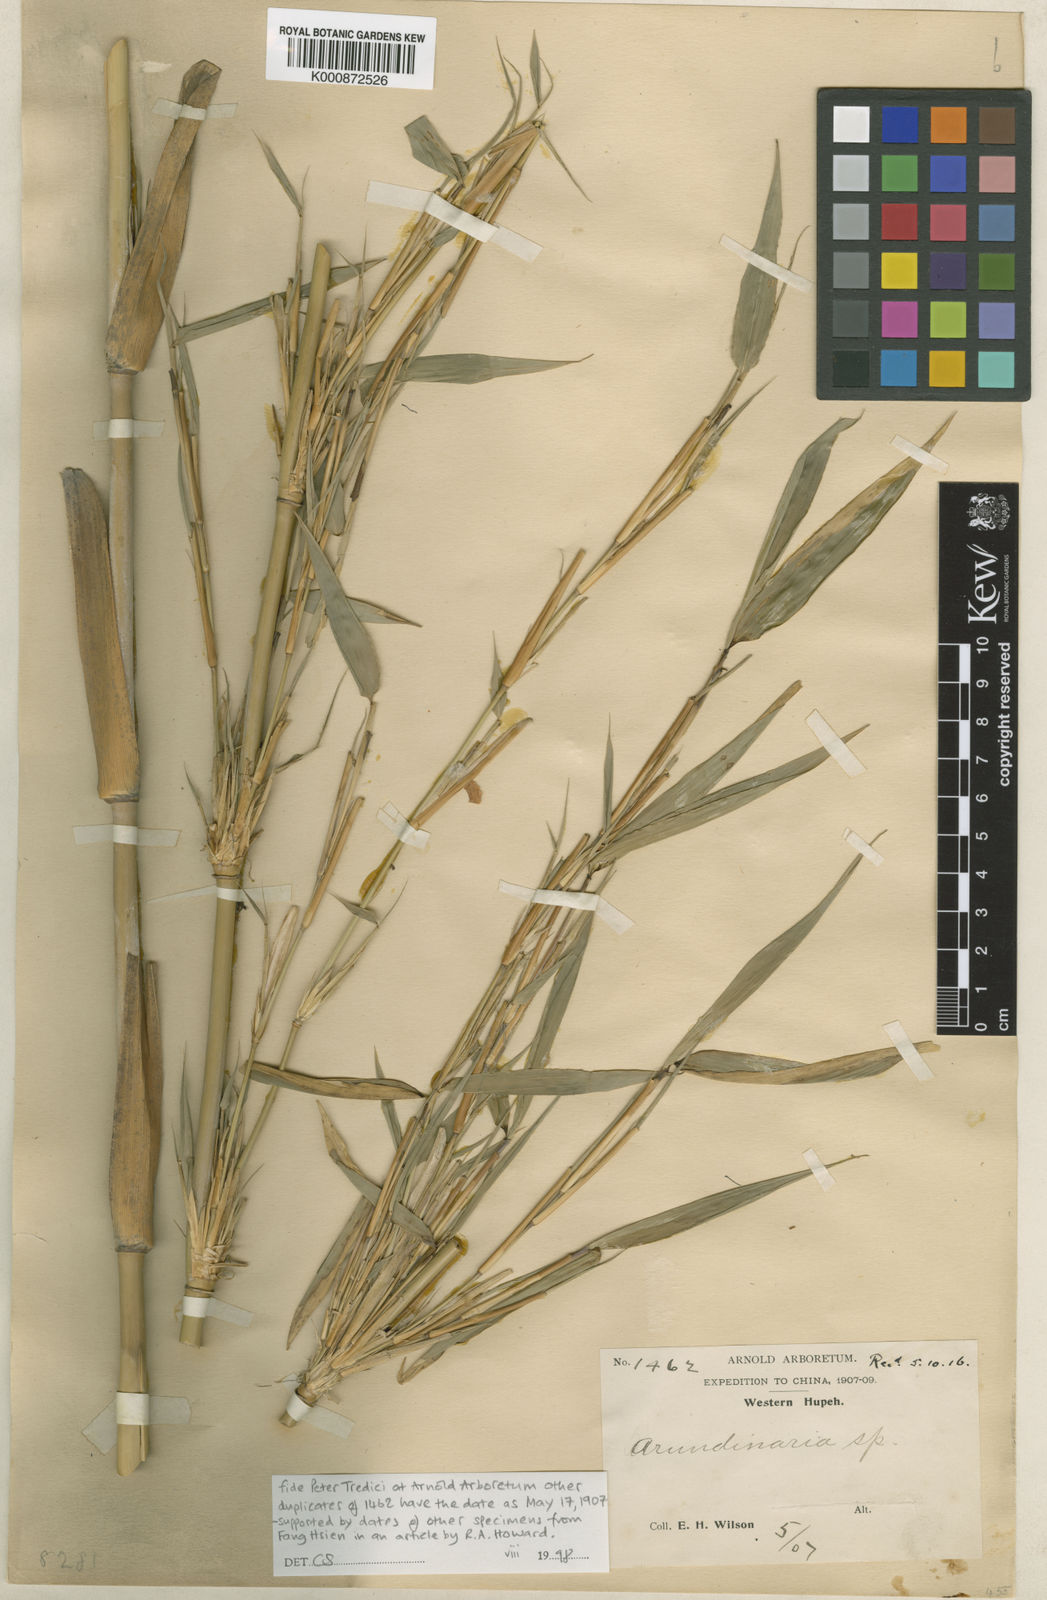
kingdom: Plantae
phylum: Tracheophyta
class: Liliopsida
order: Poales
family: Poaceae
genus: Fargesia
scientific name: Fargesia murielae
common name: Umbrella bamboo
